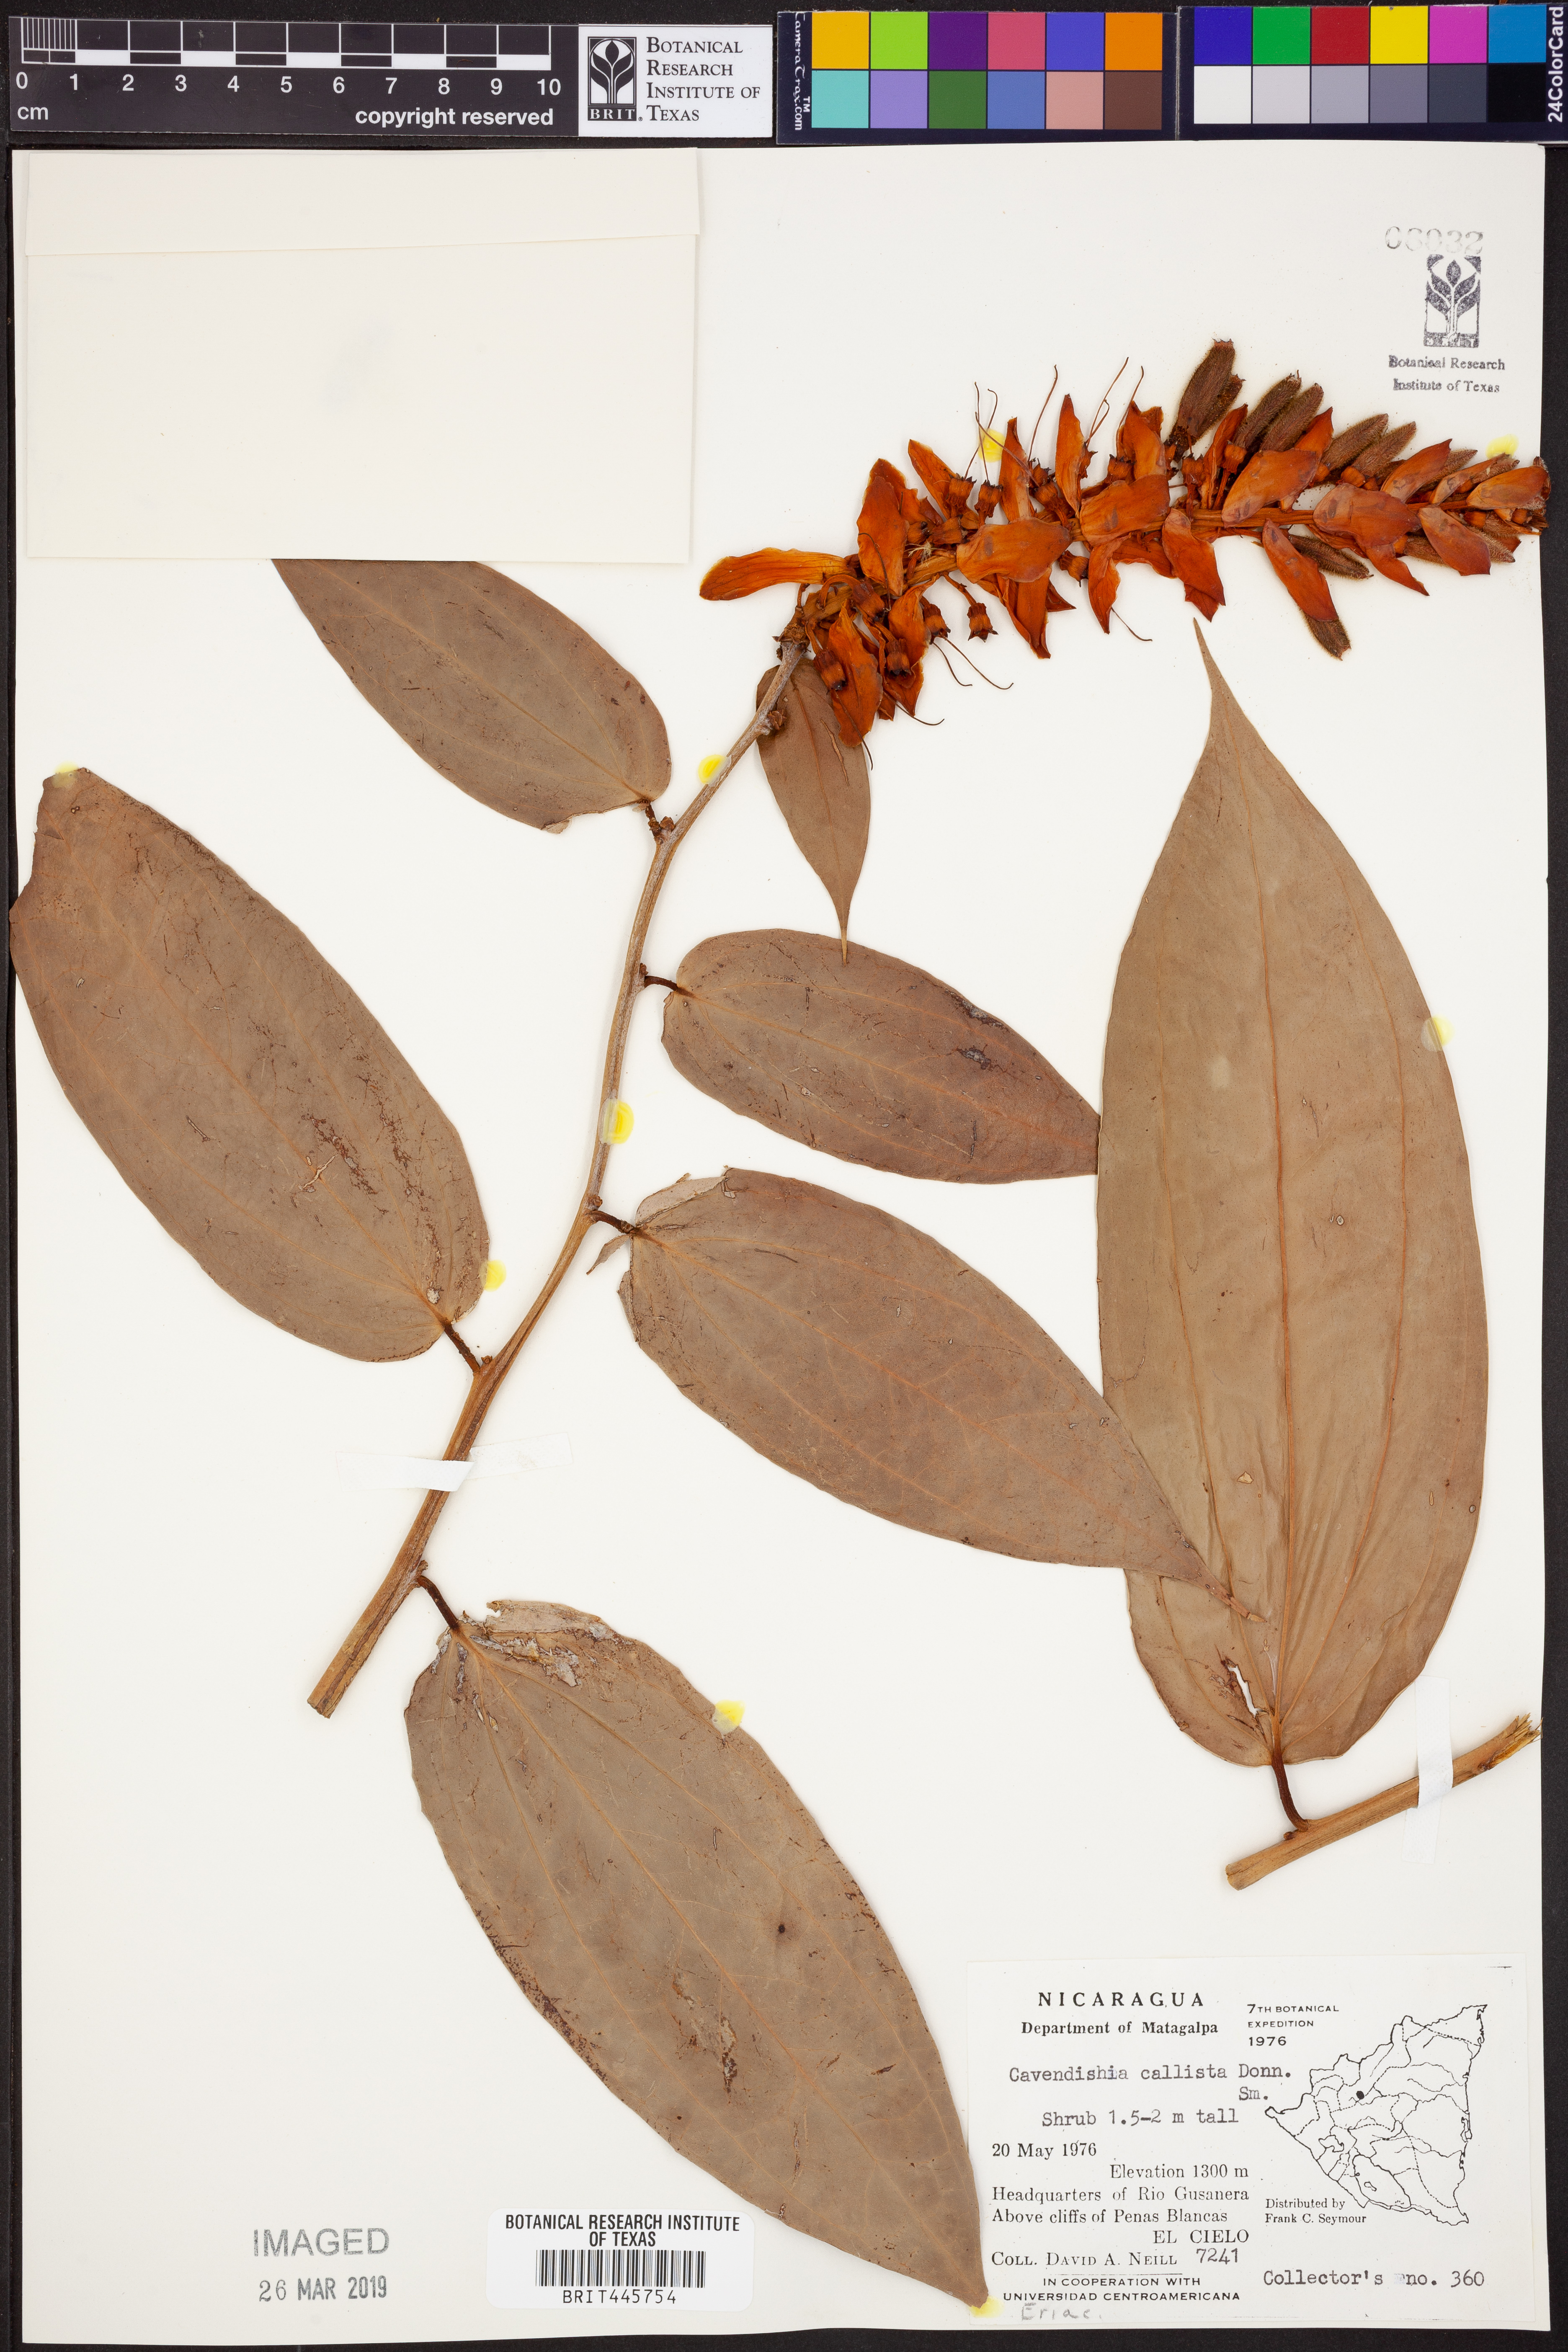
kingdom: Plantae
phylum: Tracheophyta
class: Magnoliopsida
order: Ericales
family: Ericaceae
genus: Cavendishia
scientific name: Cavendishia callista
